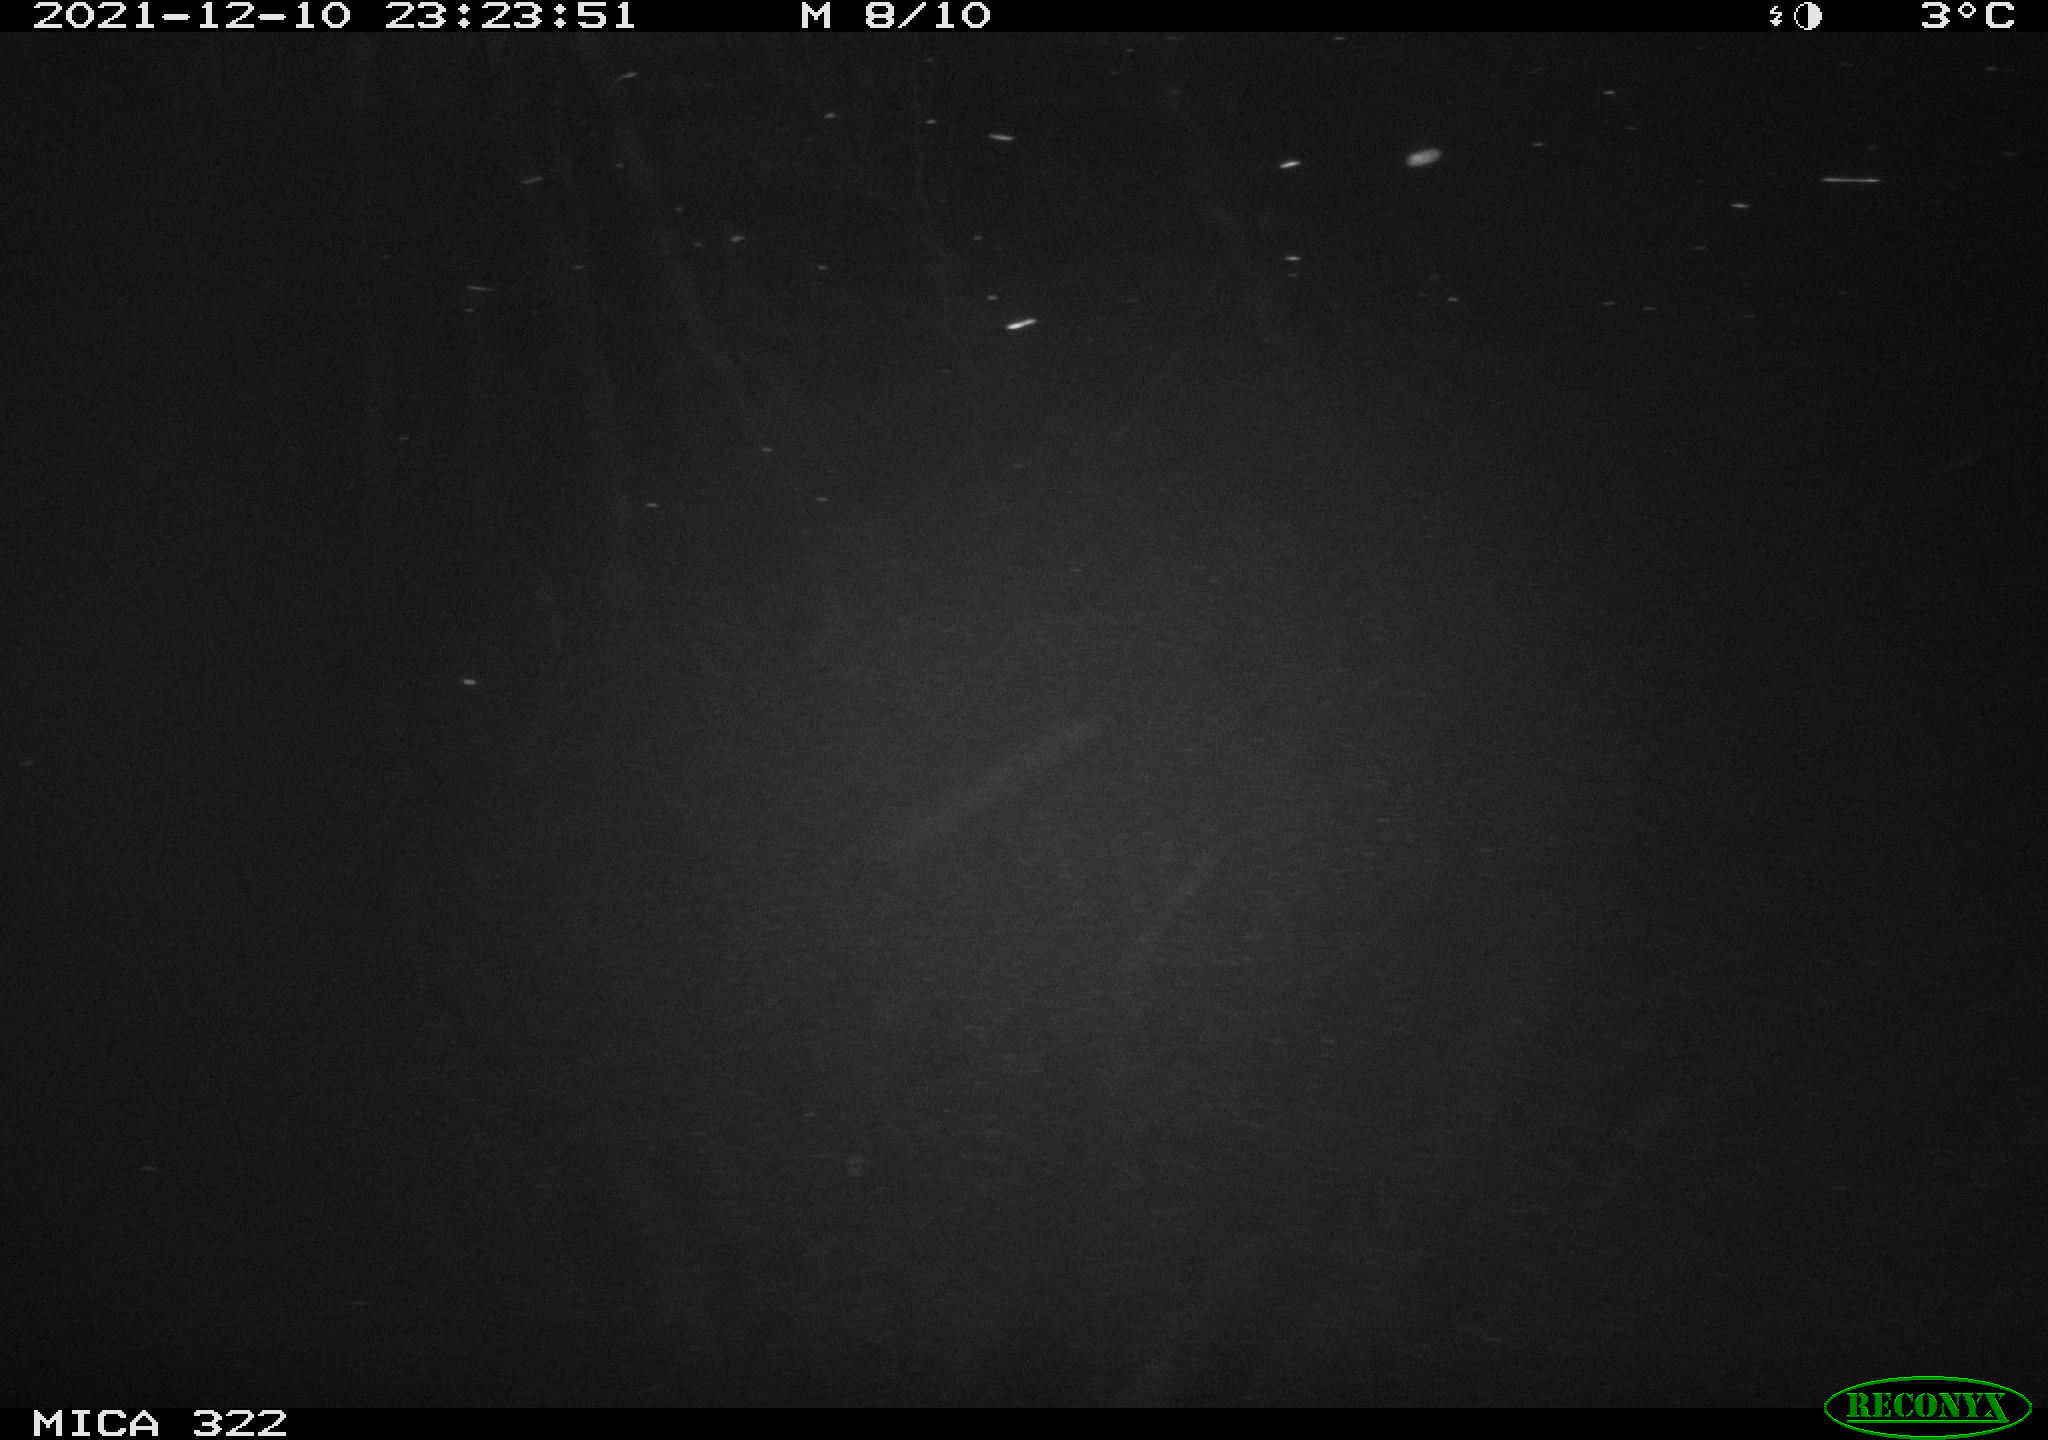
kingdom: Animalia
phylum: Chordata
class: Mammalia
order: Rodentia
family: Muridae
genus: Rattus
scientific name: Rattus norvegicus
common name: Brown rat
